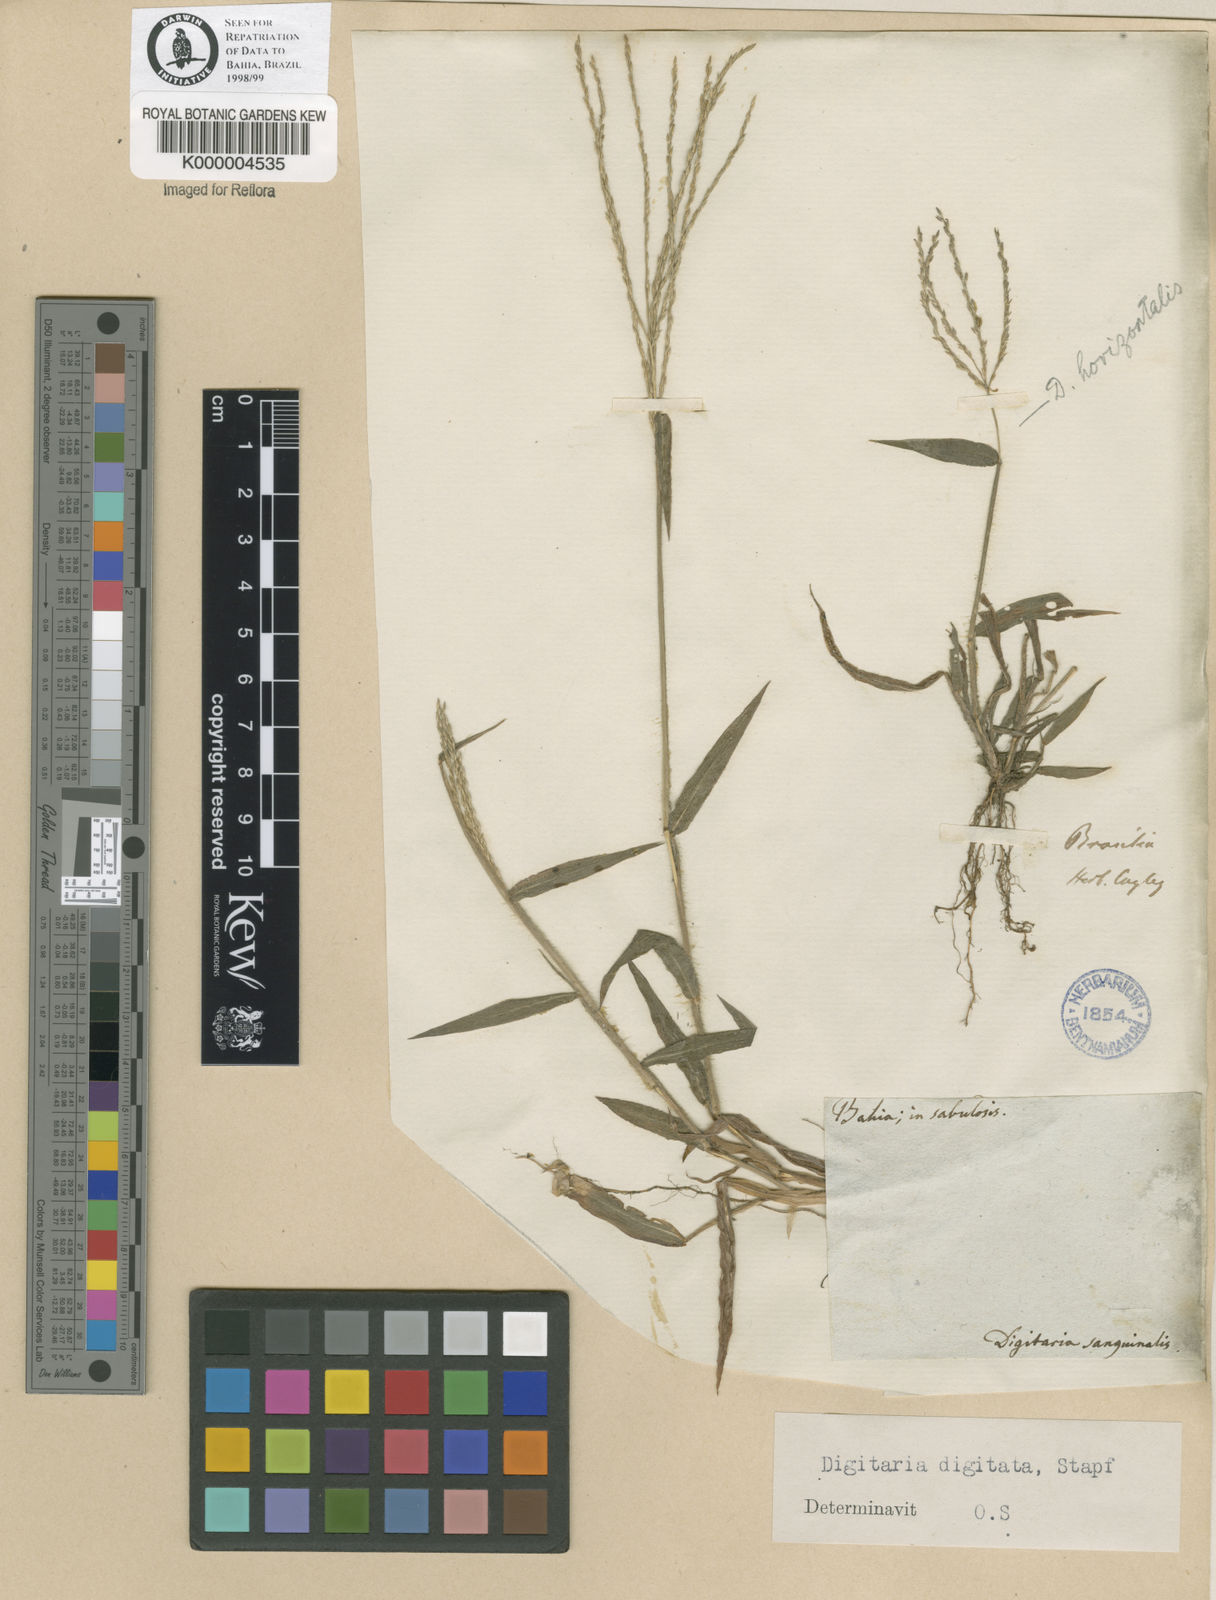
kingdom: Plantae
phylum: Tracheophyta
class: Liliopsida
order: Poales
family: Poaceae
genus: Digitaria
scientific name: Digitaria horizontalis
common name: Jamaican crabgrass
